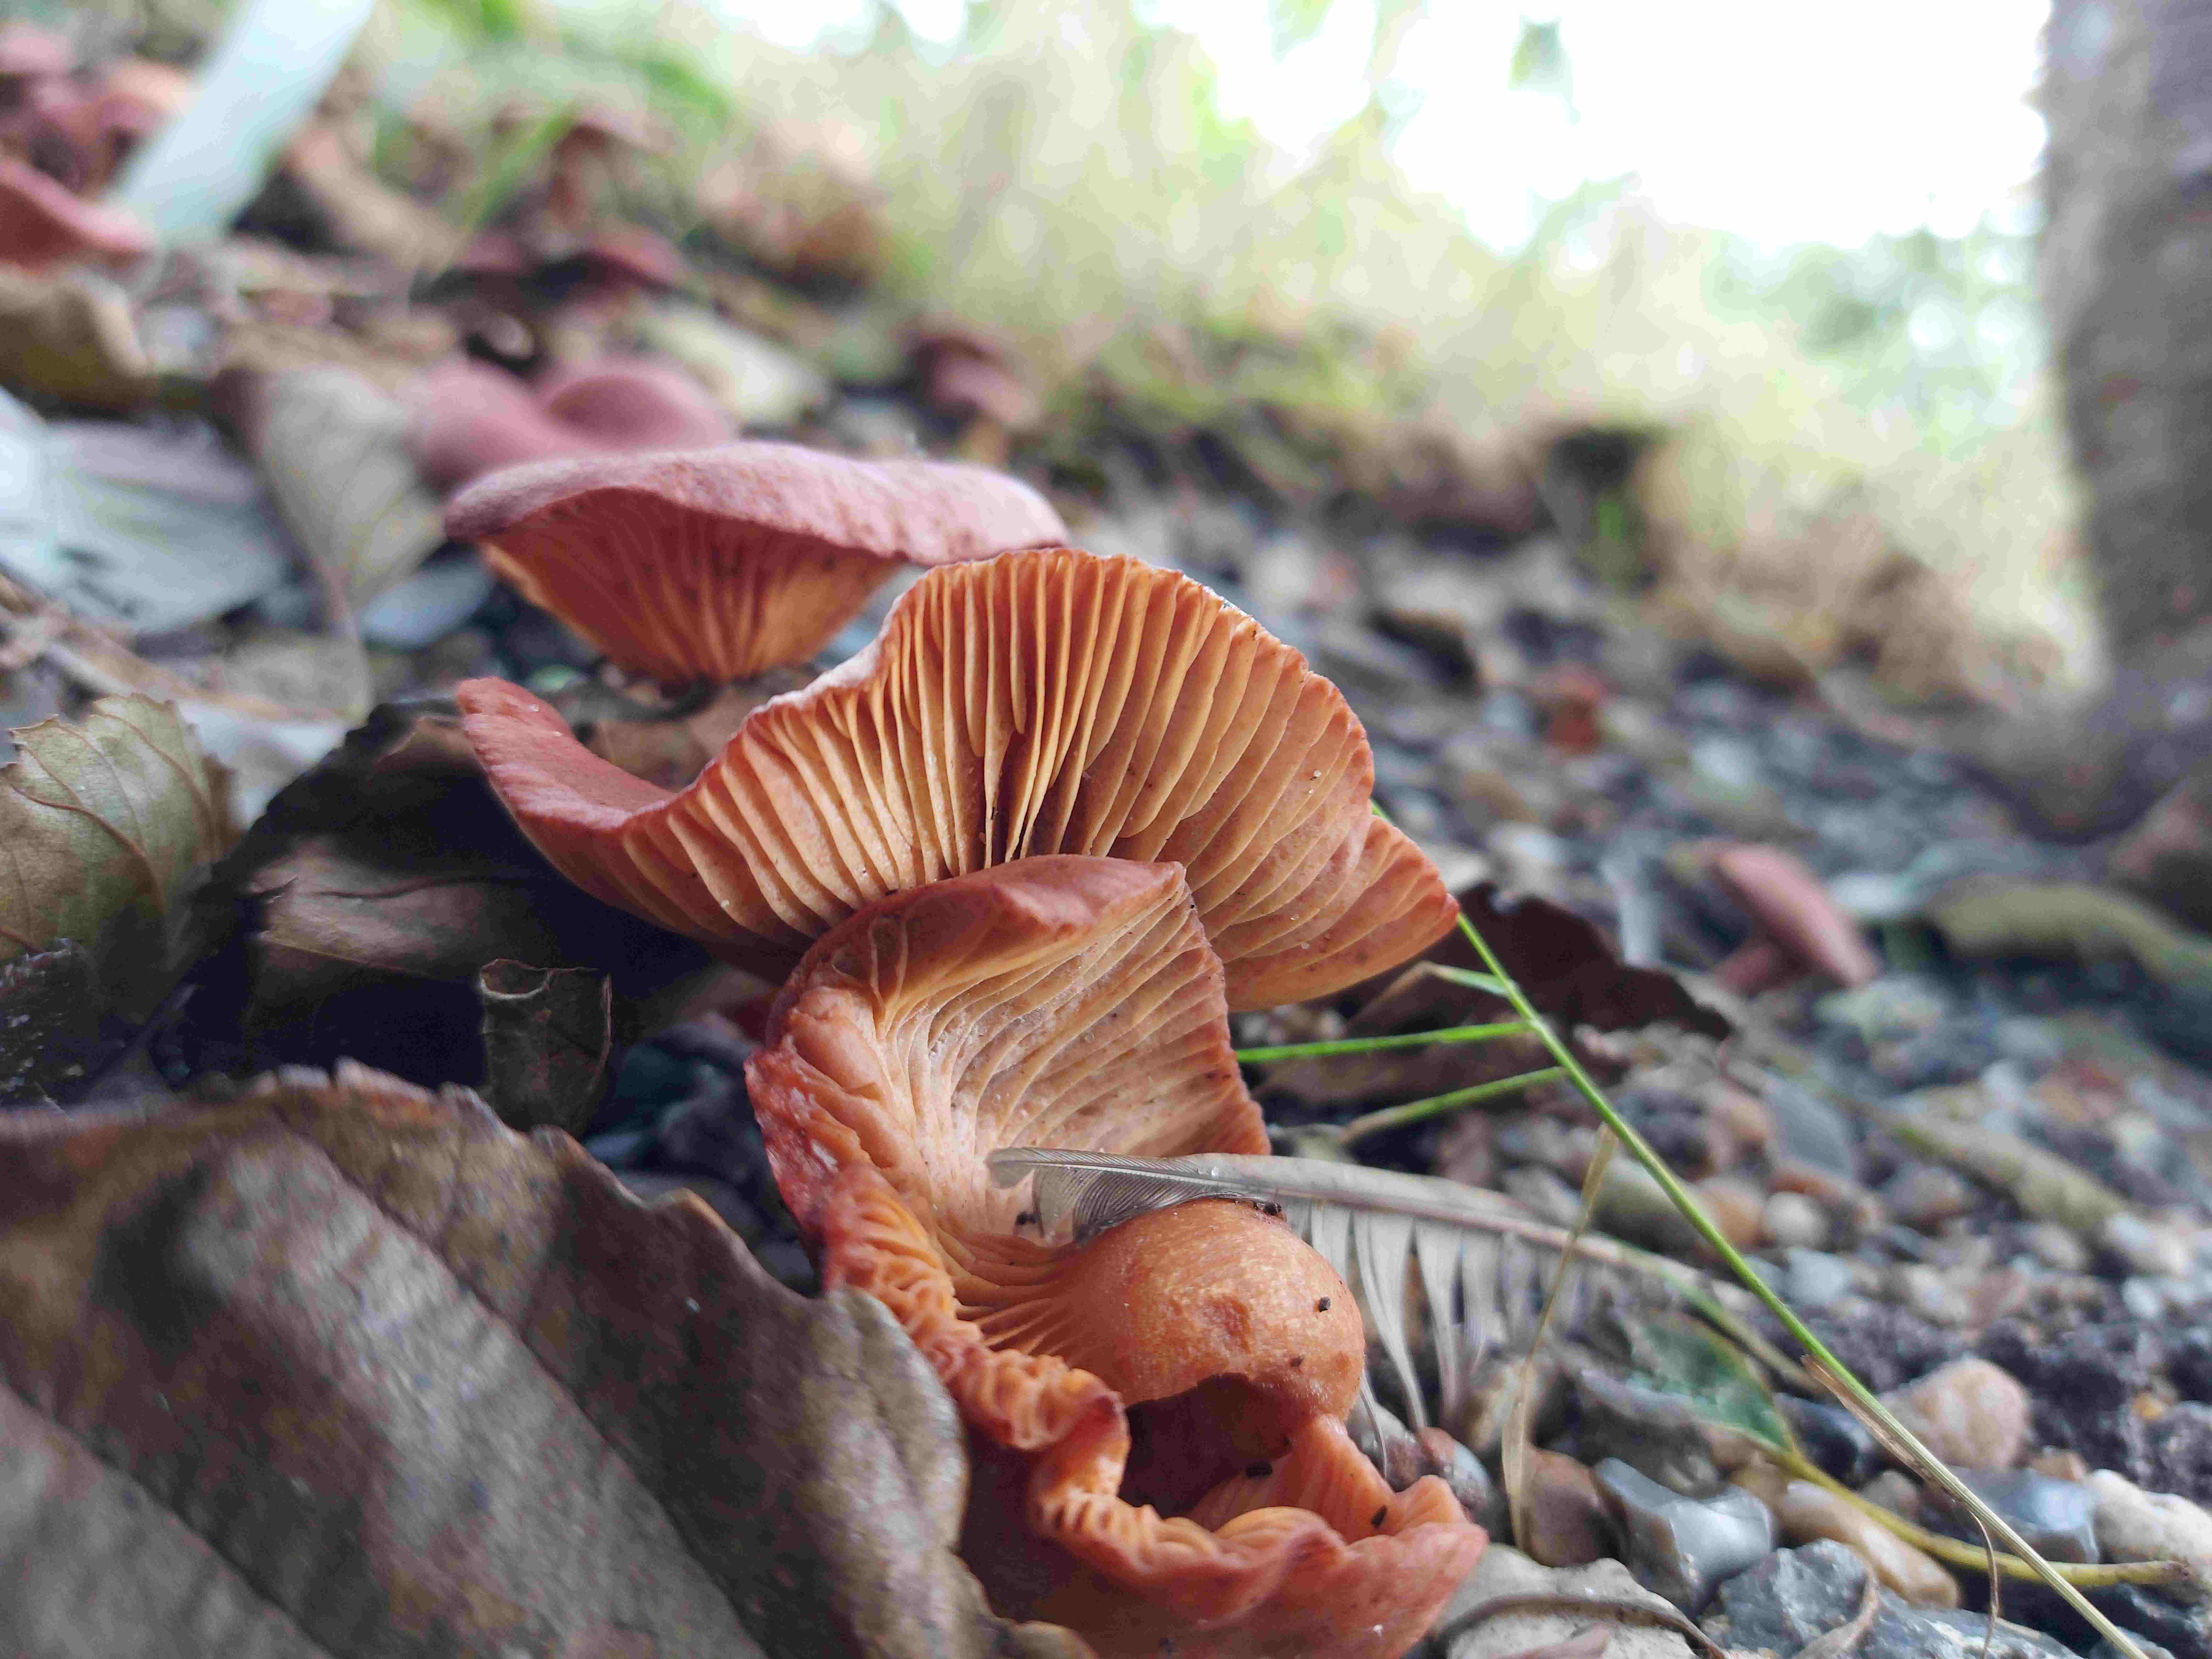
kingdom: Fungi
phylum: Basidiomycota
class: Agaricomycetes
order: Russulales
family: Russulaceae
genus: Lactarius
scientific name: Lactarius lilacinus
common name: lilla mælkehat
